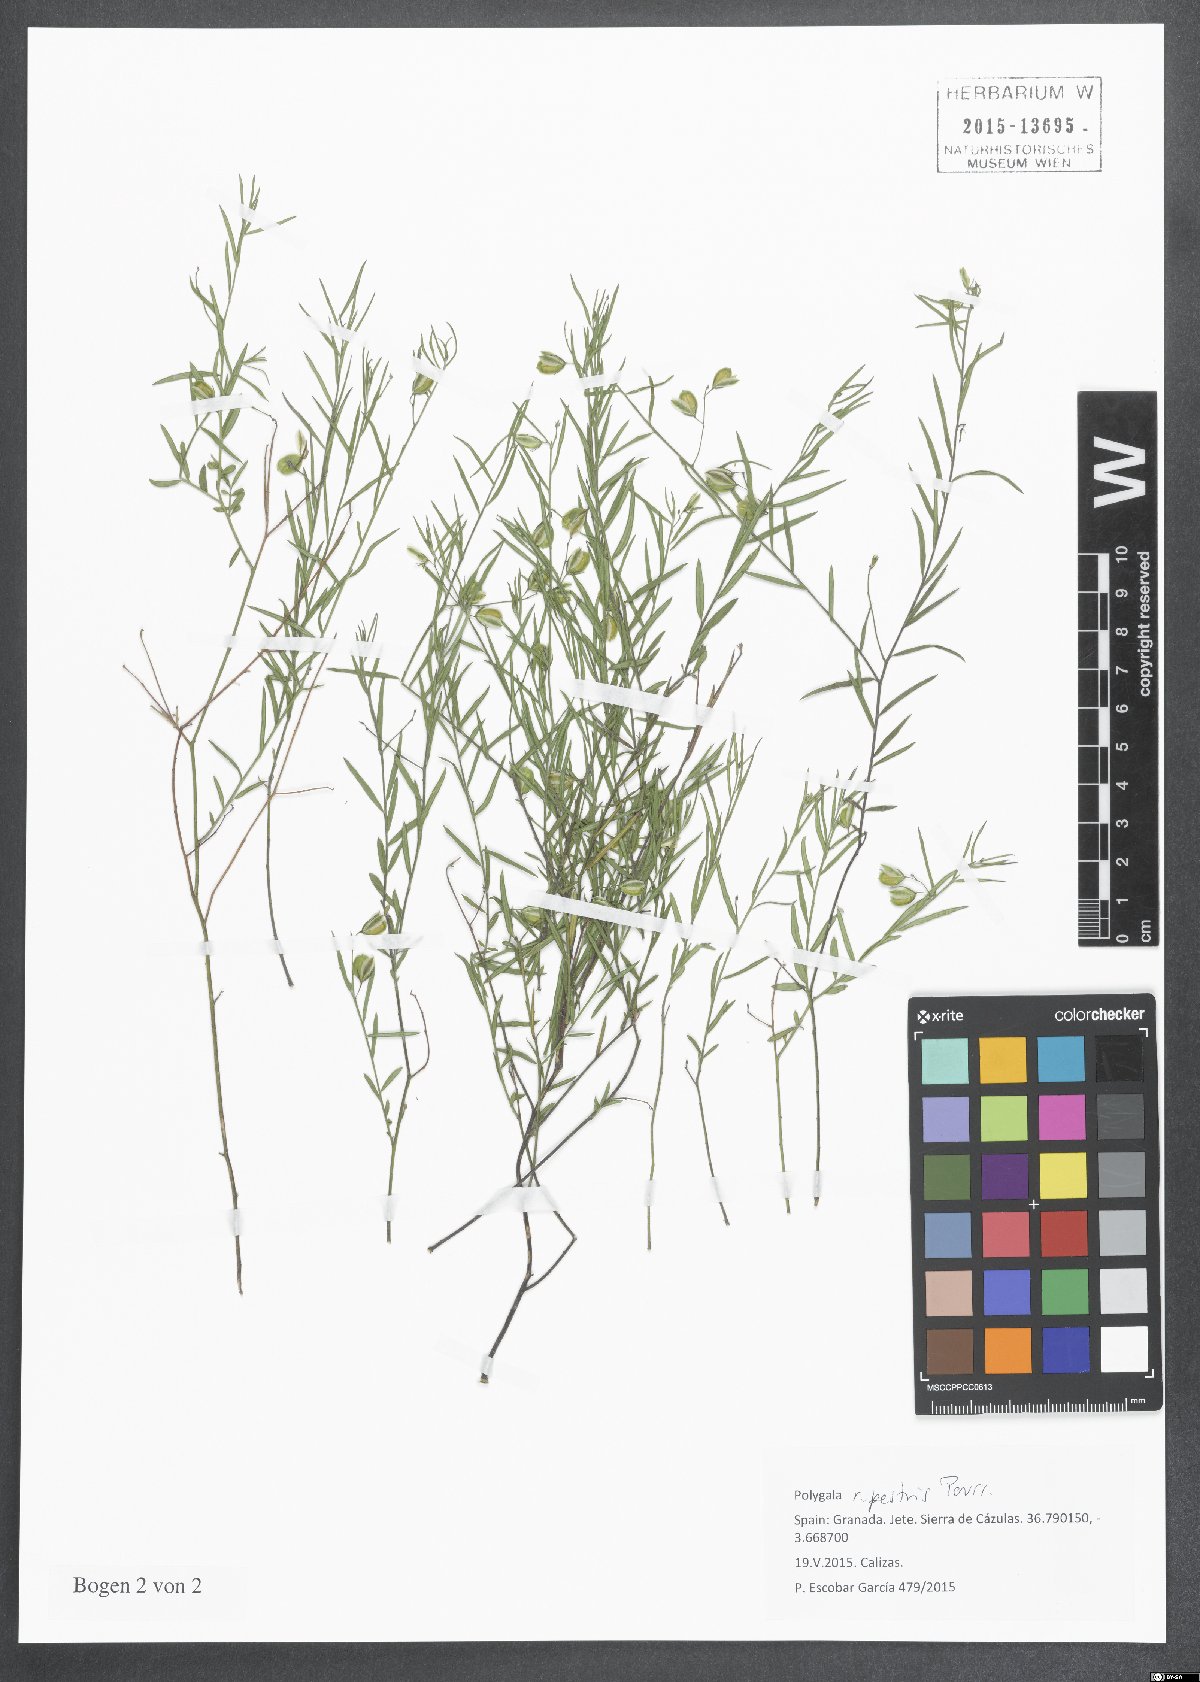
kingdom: Plantae
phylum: Tracheophyta
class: Magnoliopsida
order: Fabales
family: Polygalaceae
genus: Polygala
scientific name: Polygala rupestris
